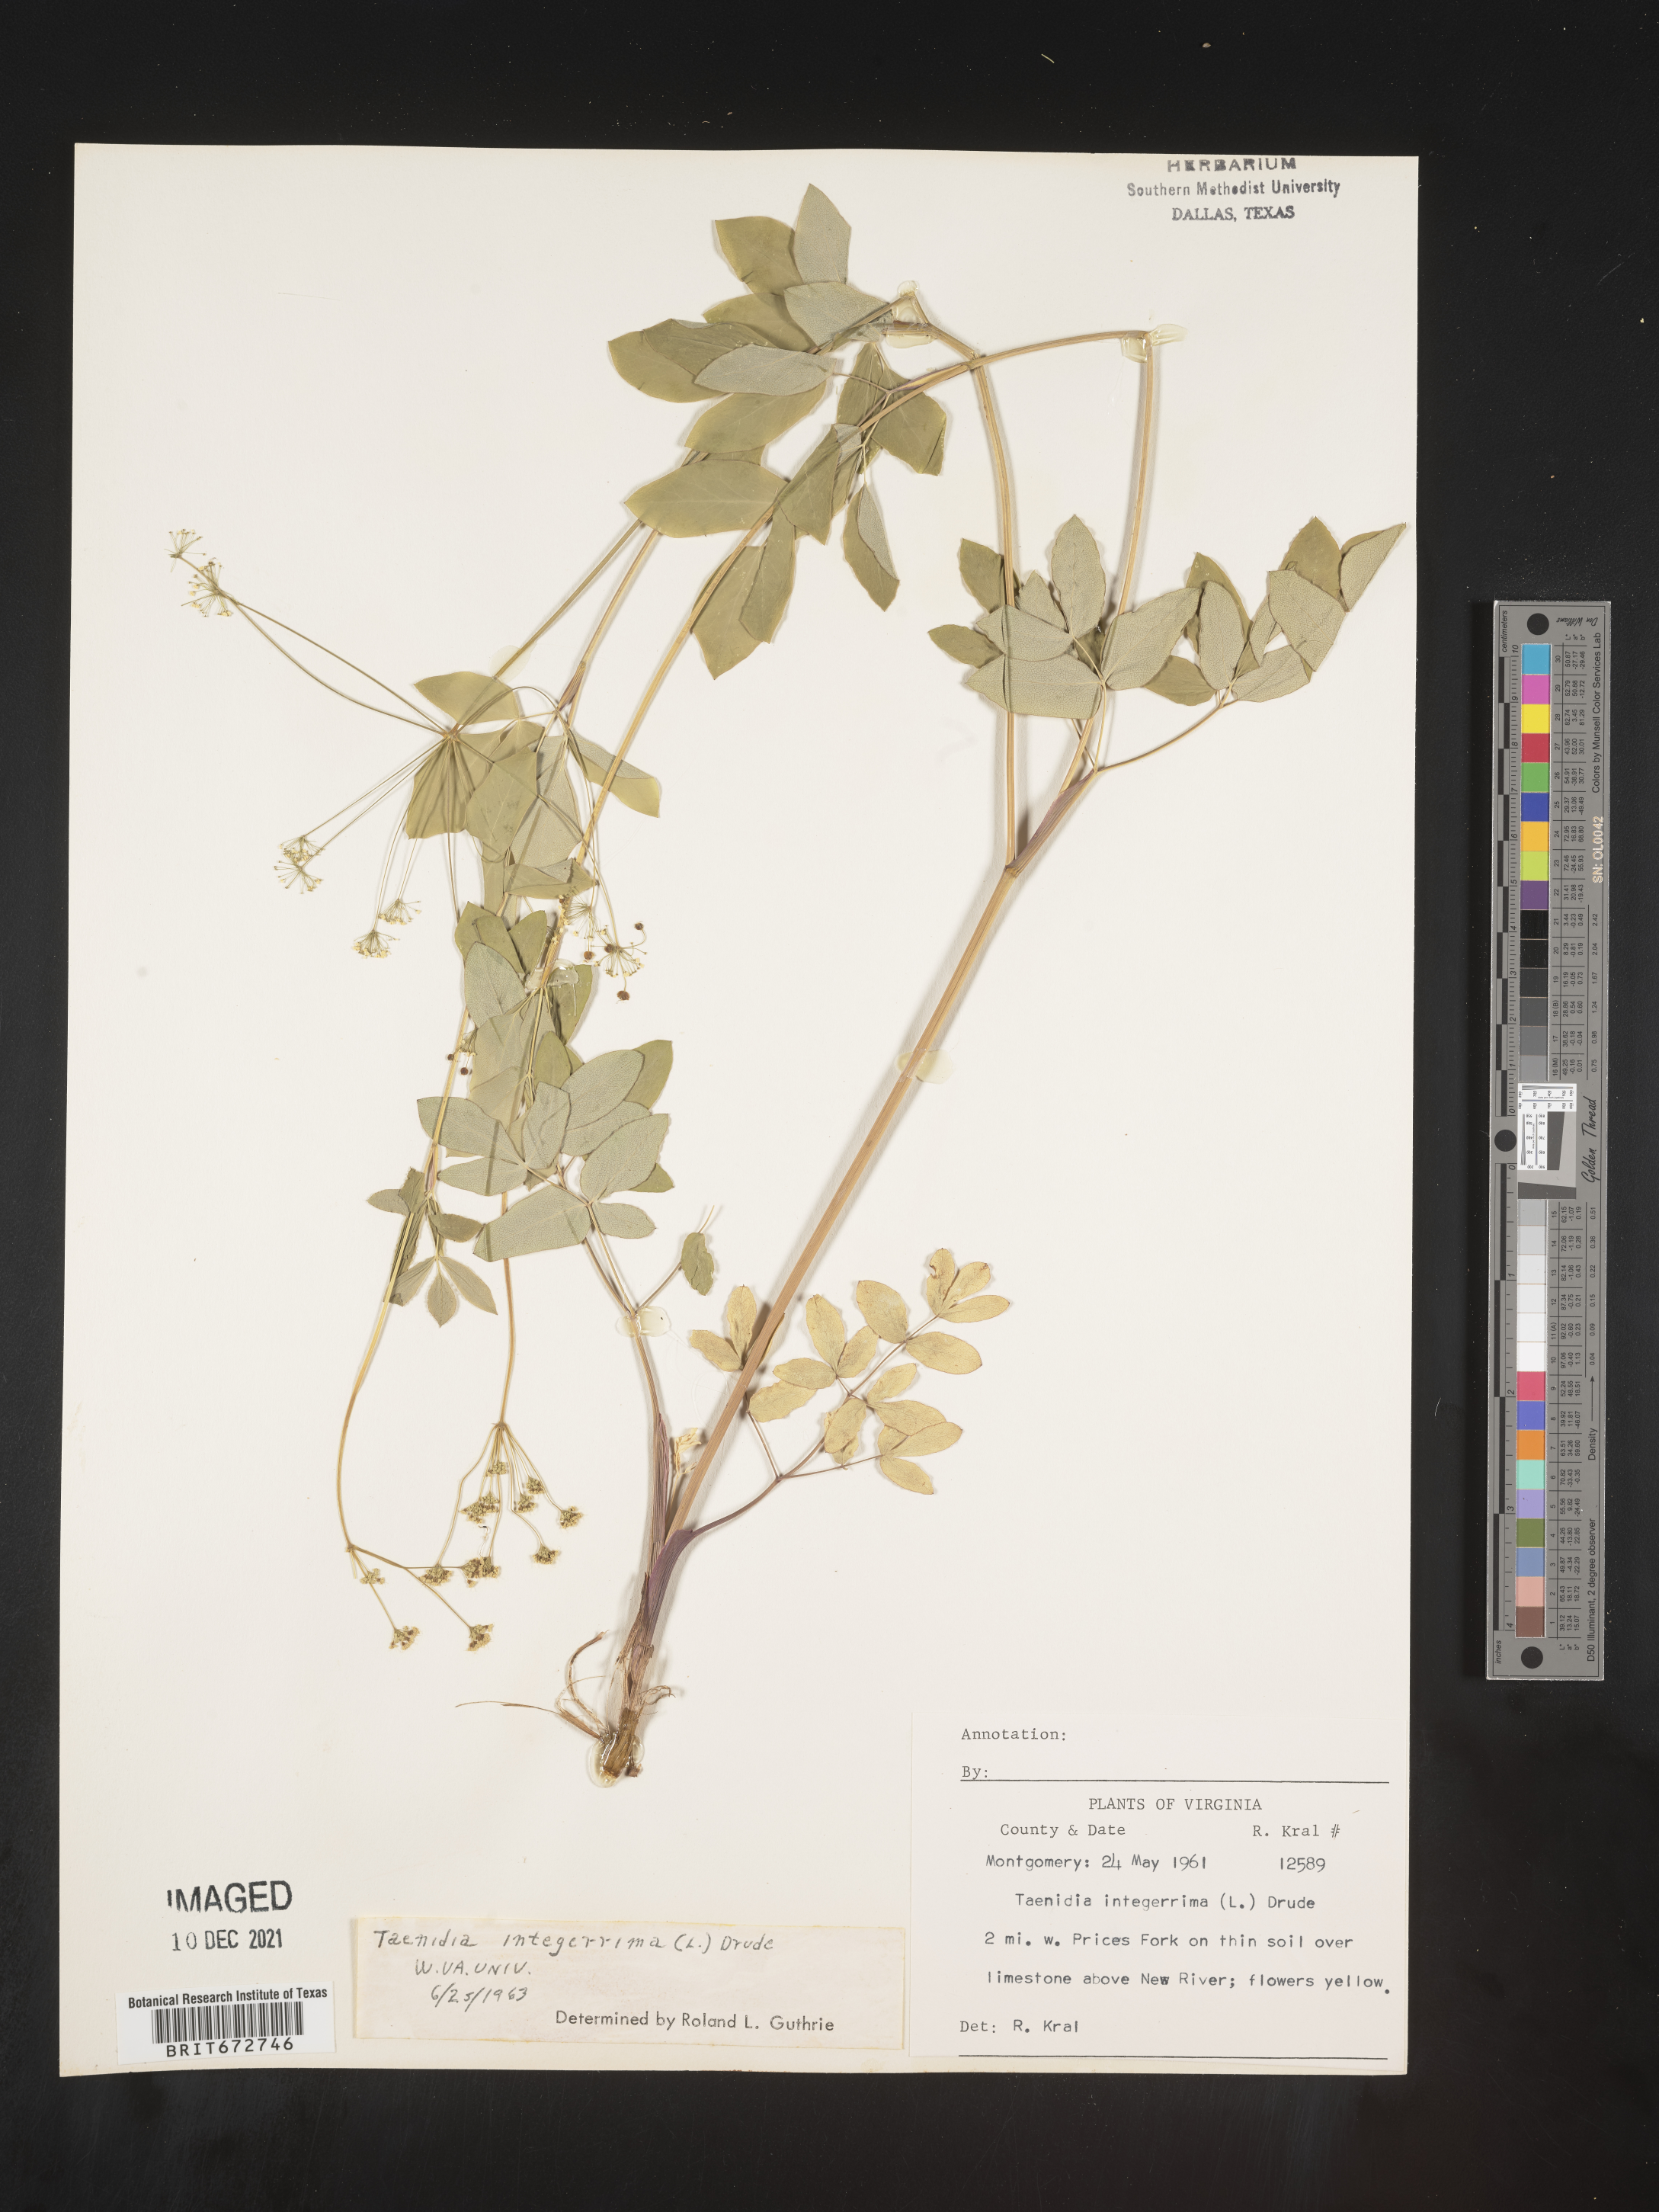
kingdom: Plantae
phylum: Tracheophyta
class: Magnoliopsida
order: Apiales
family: Apiaceae
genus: Taenidia
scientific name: Taenidia
